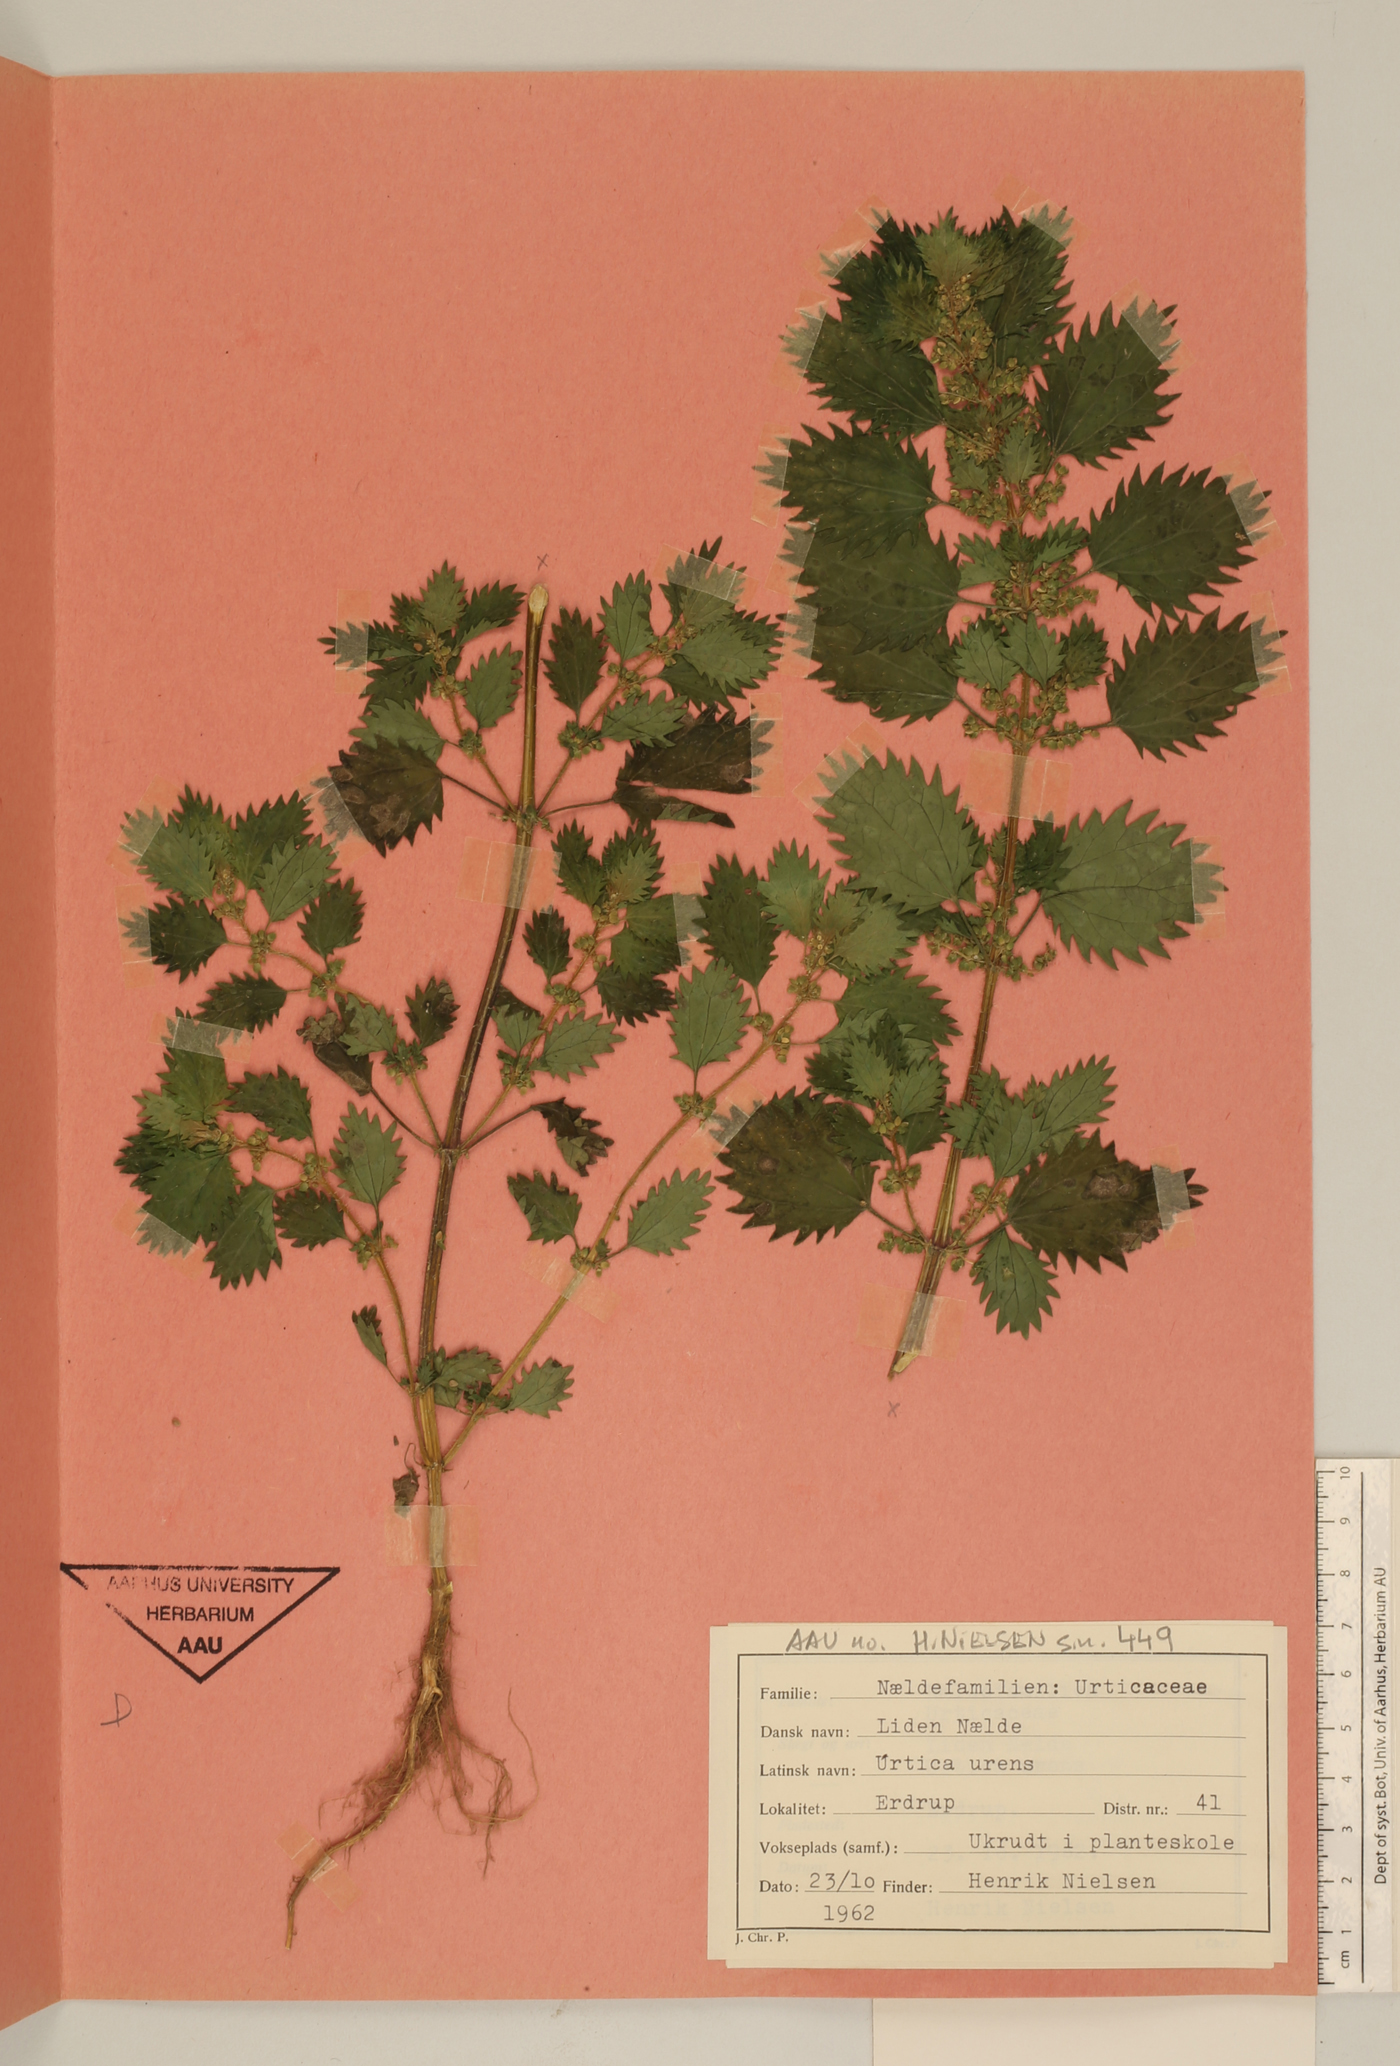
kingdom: Plantae
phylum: Tracheophyta
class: Magnoliopsida
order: Rosales
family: Urticaceae
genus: Urtica
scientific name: Urtica urens
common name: Dwarf nettle
